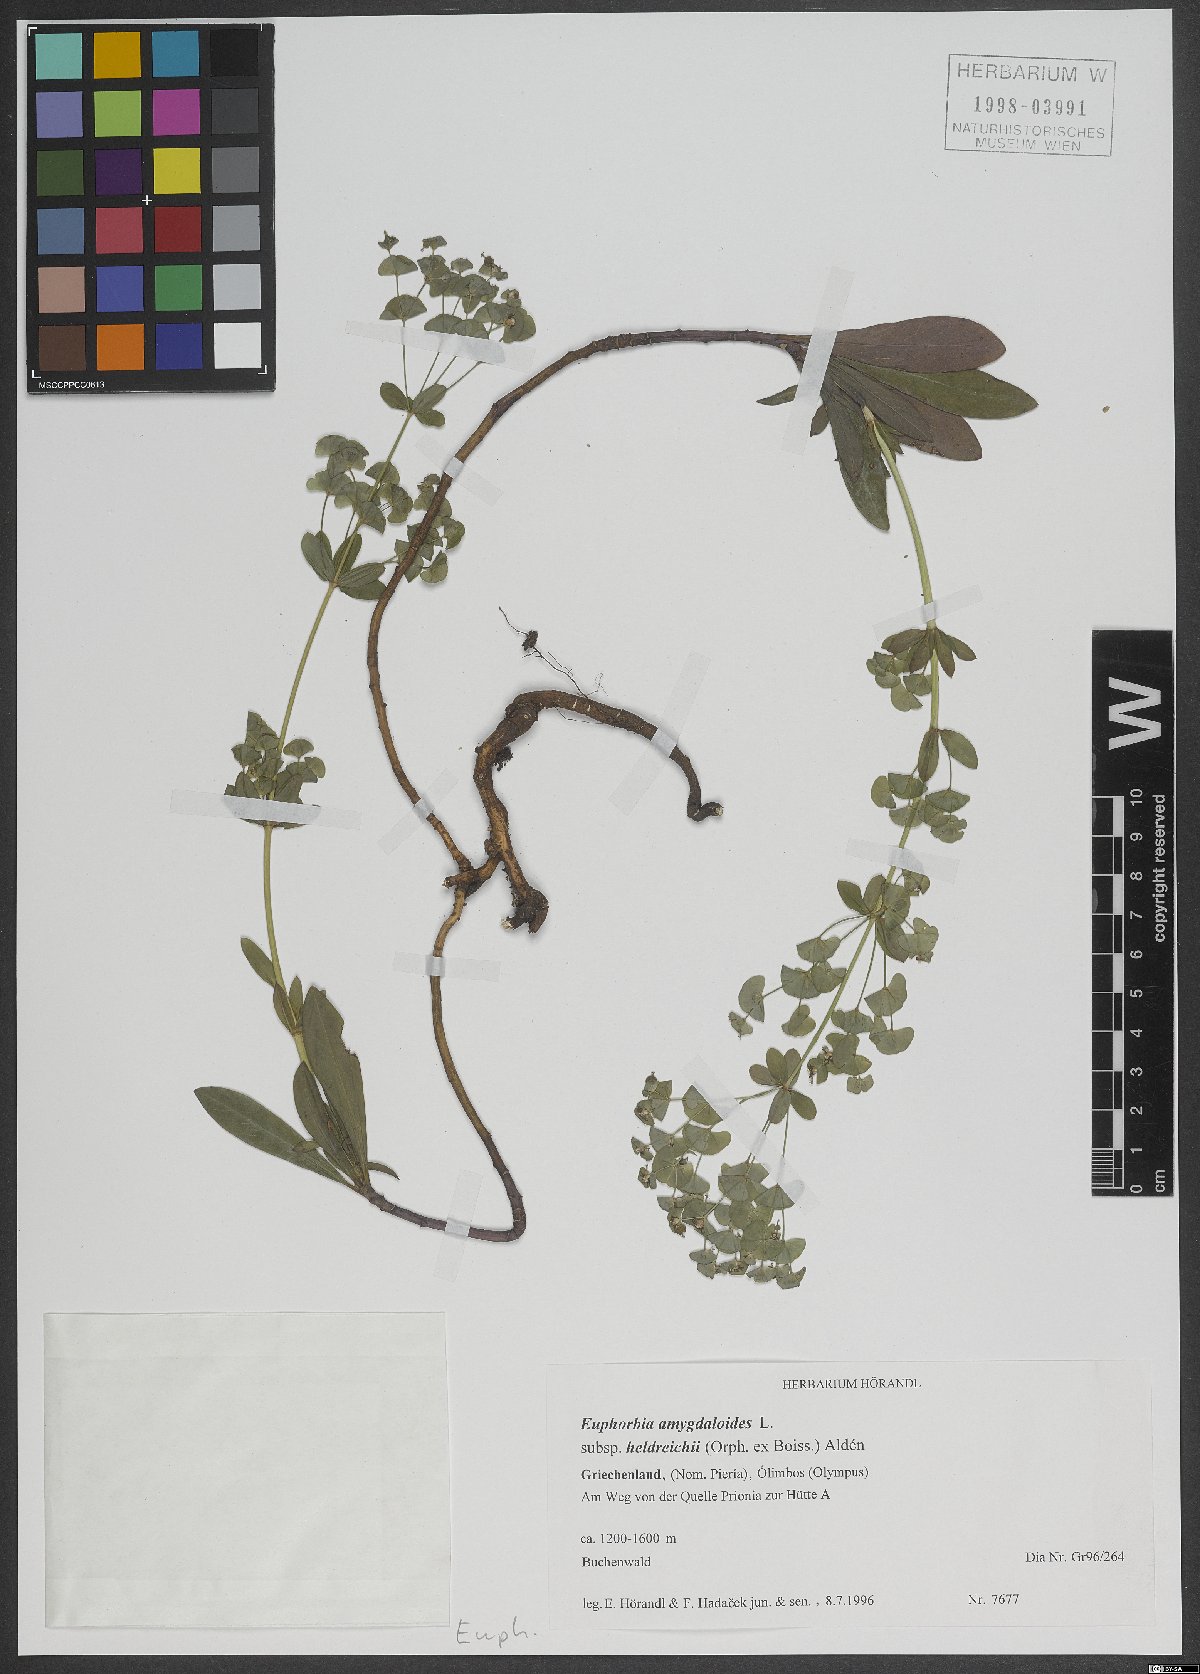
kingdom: Plantae
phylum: Tracheophyta
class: Magnoliopsida
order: Malpighiales
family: Euphorbiaceae
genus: Euphorbia
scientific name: Euphorbia heldreichii
